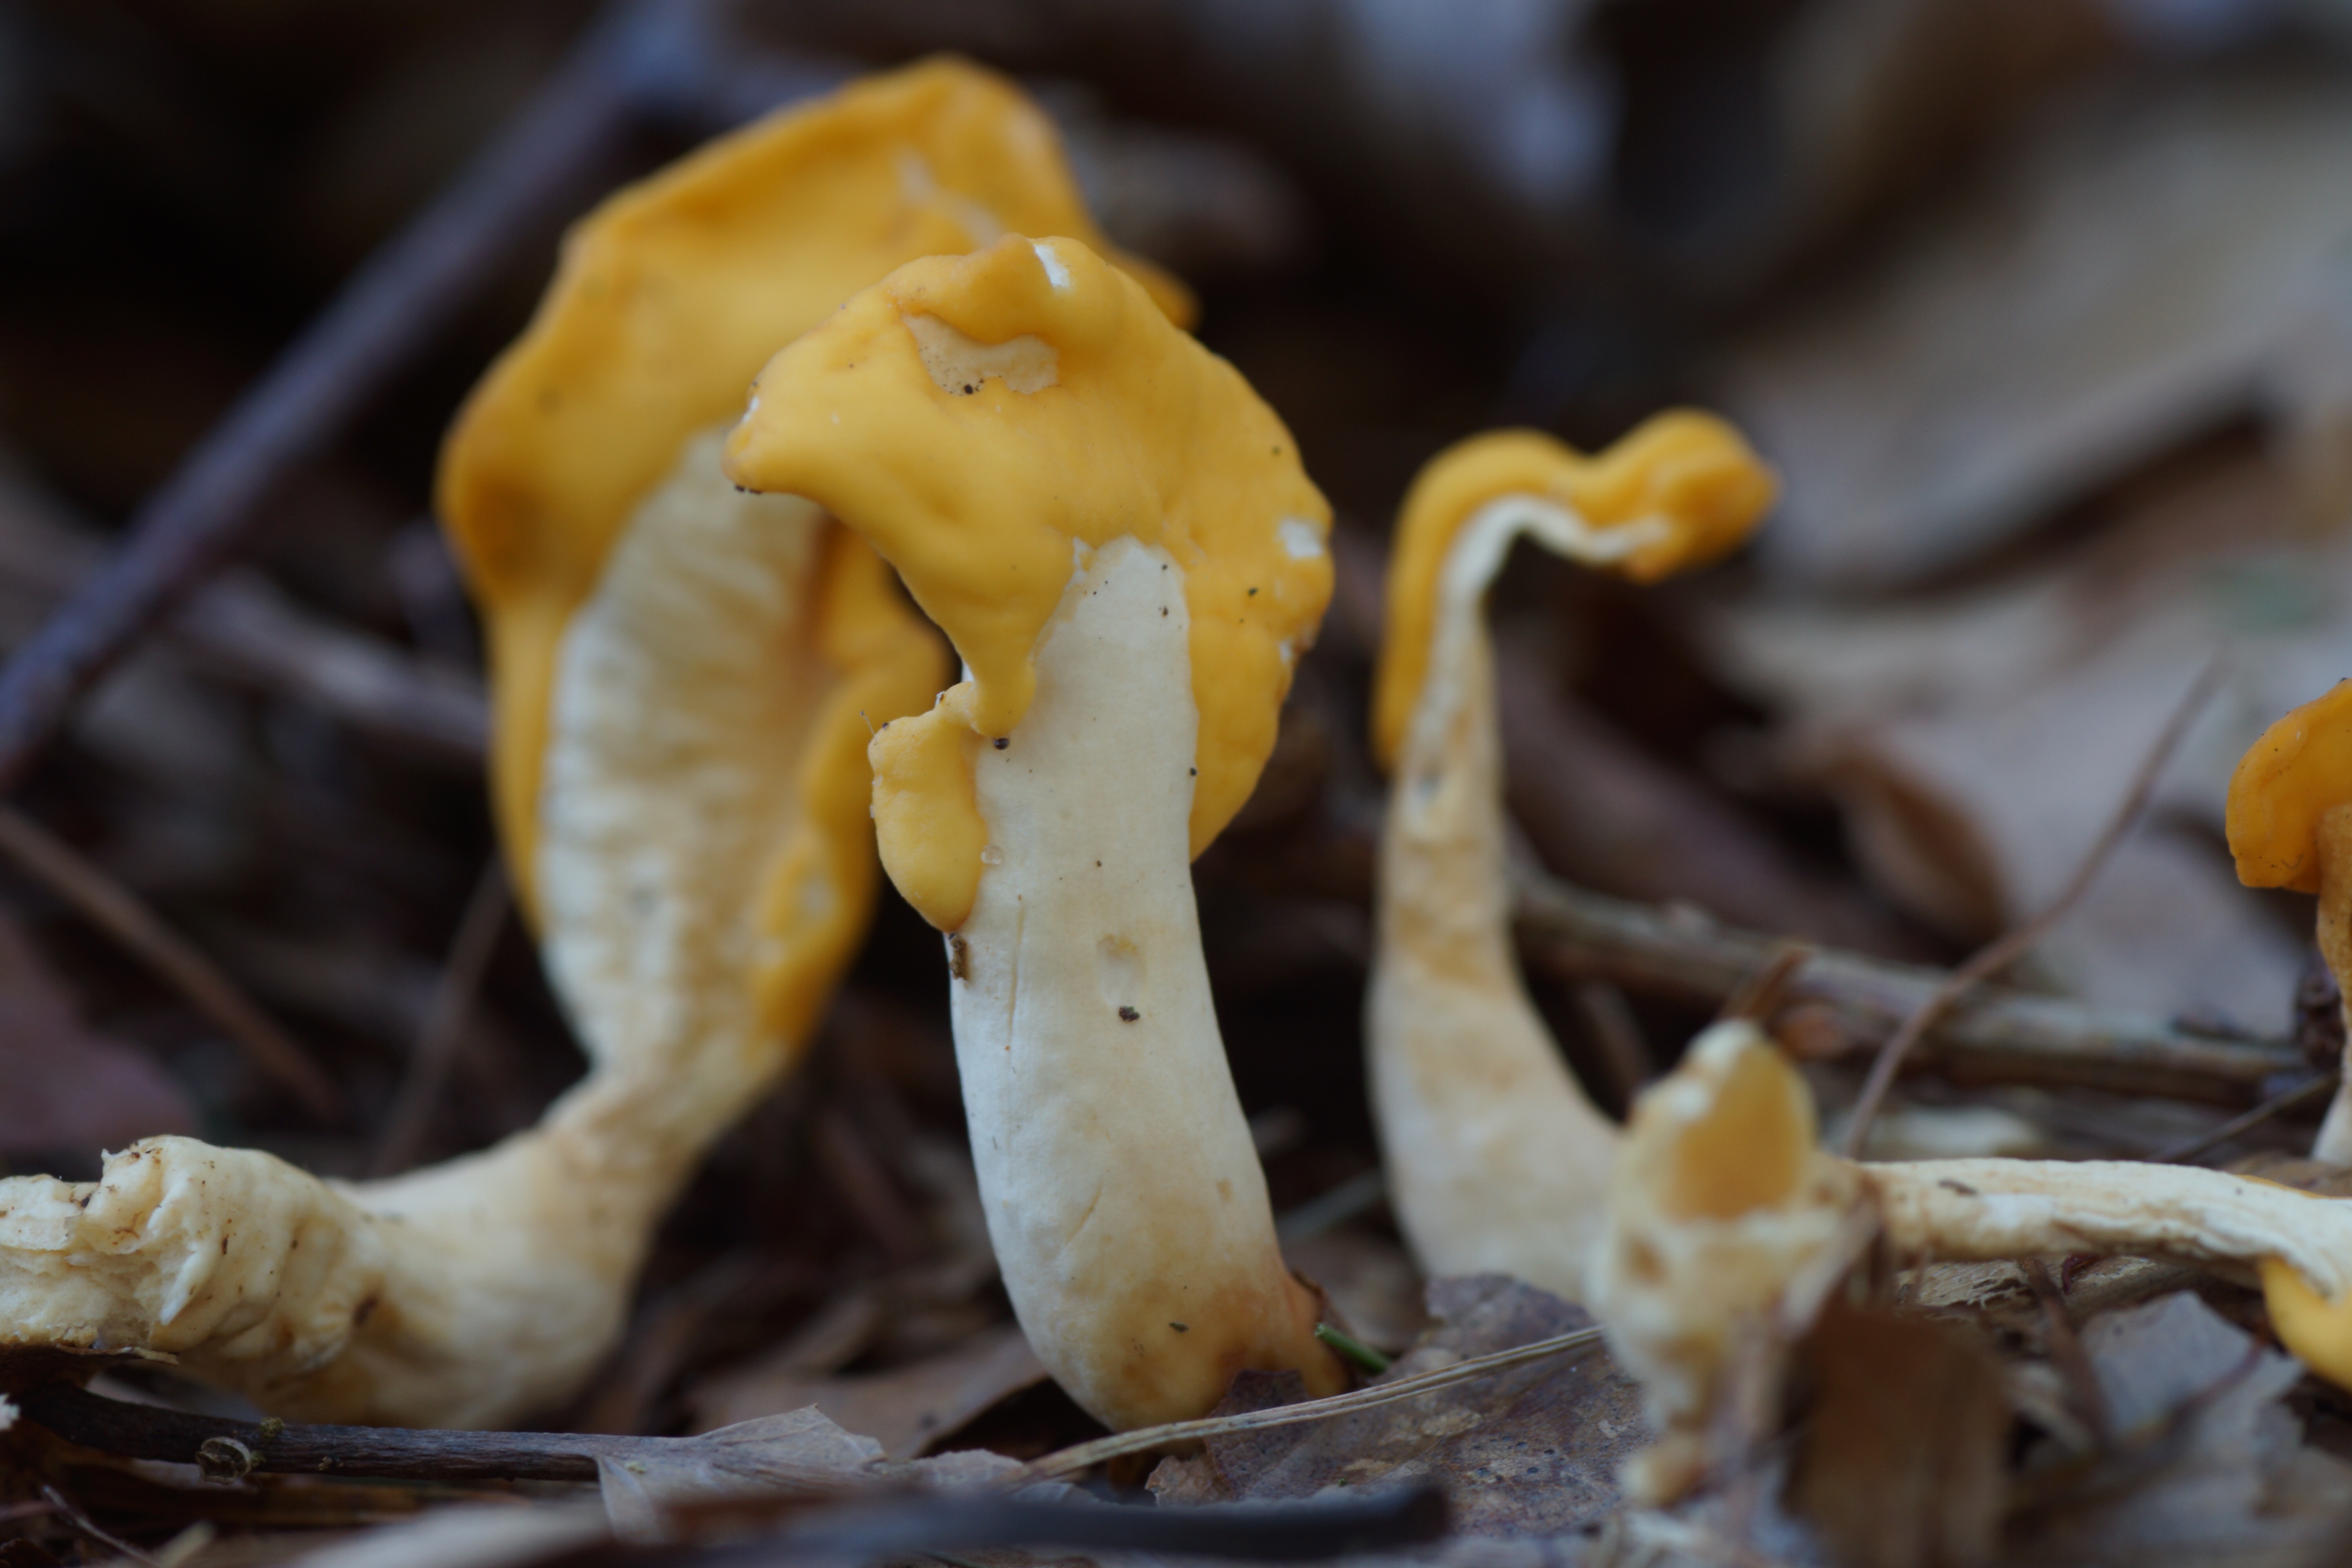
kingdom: Fungi
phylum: Ascomycota
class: Leotiomycetes
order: Rhytismatales
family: Cudoniaceae
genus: Spathularia
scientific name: Spathularia flavida
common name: gul spatelsvamp
